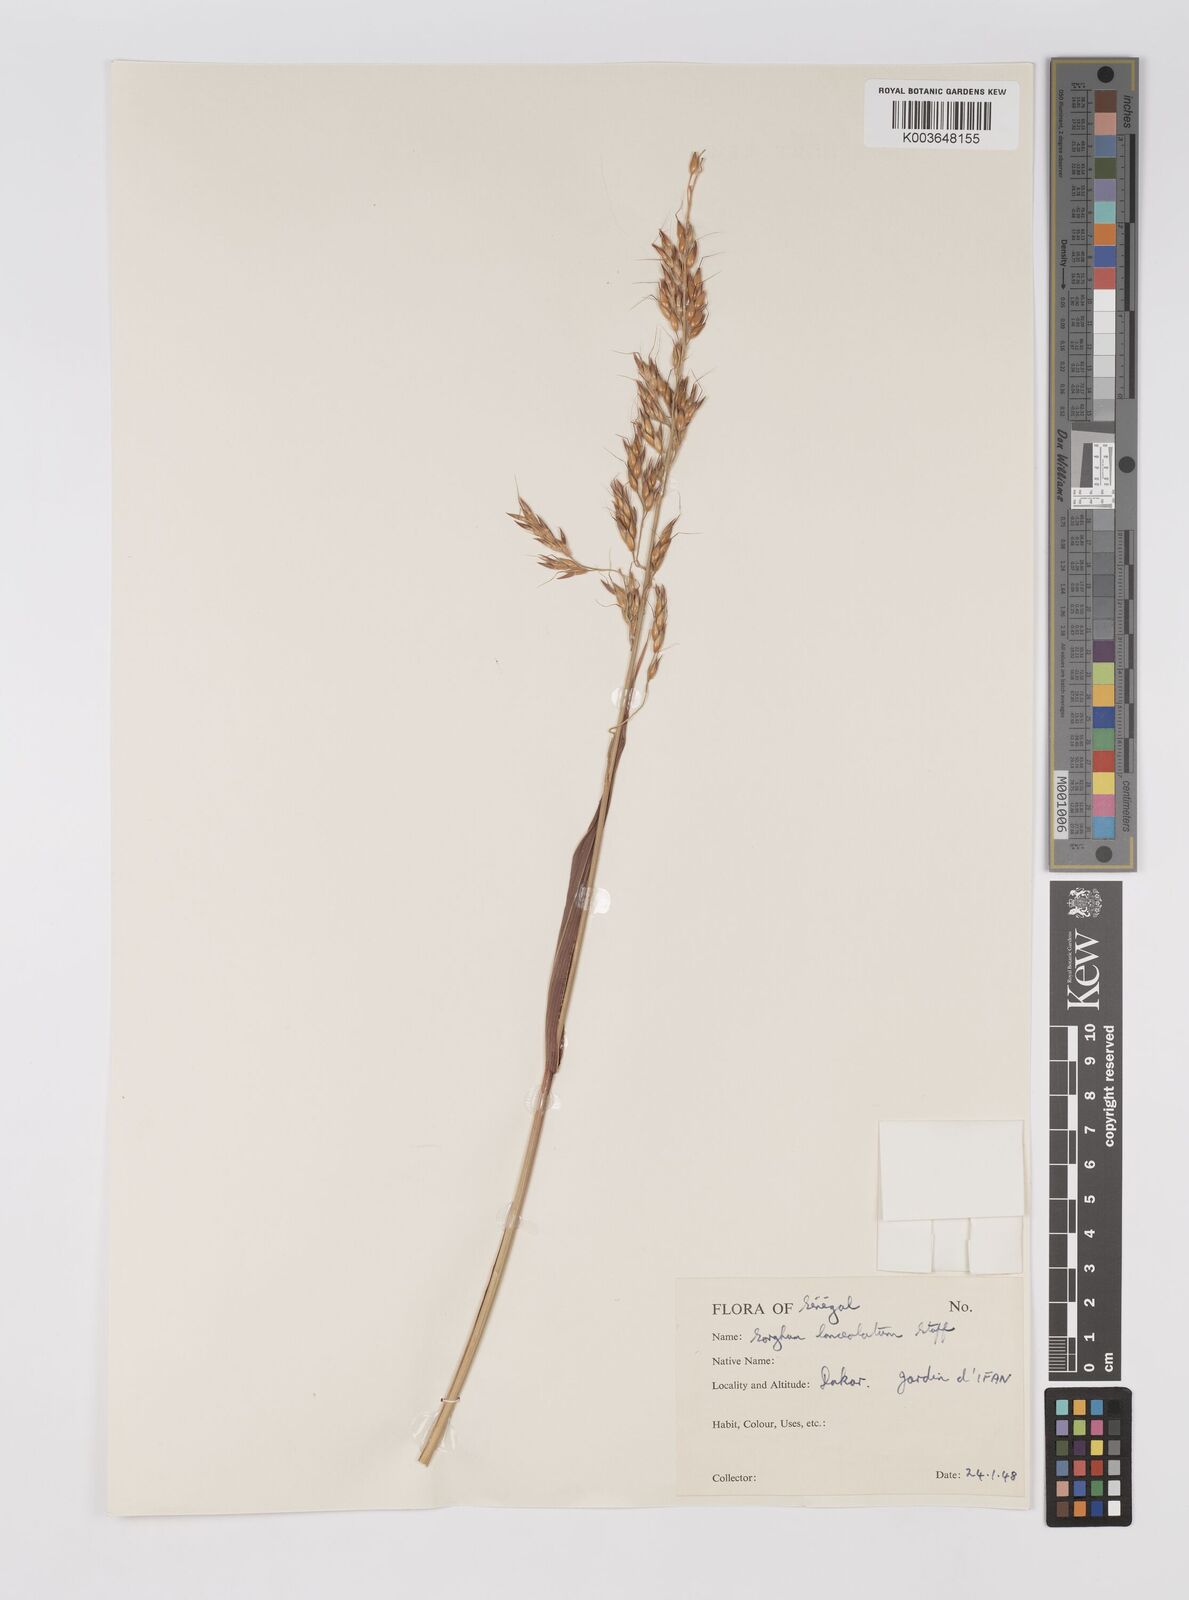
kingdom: Plantae
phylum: Tracheophyta
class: Liliopsida
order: Poales
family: Poaceae
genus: Sorghum
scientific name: Sorghum arundinaceum
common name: Sorghum
